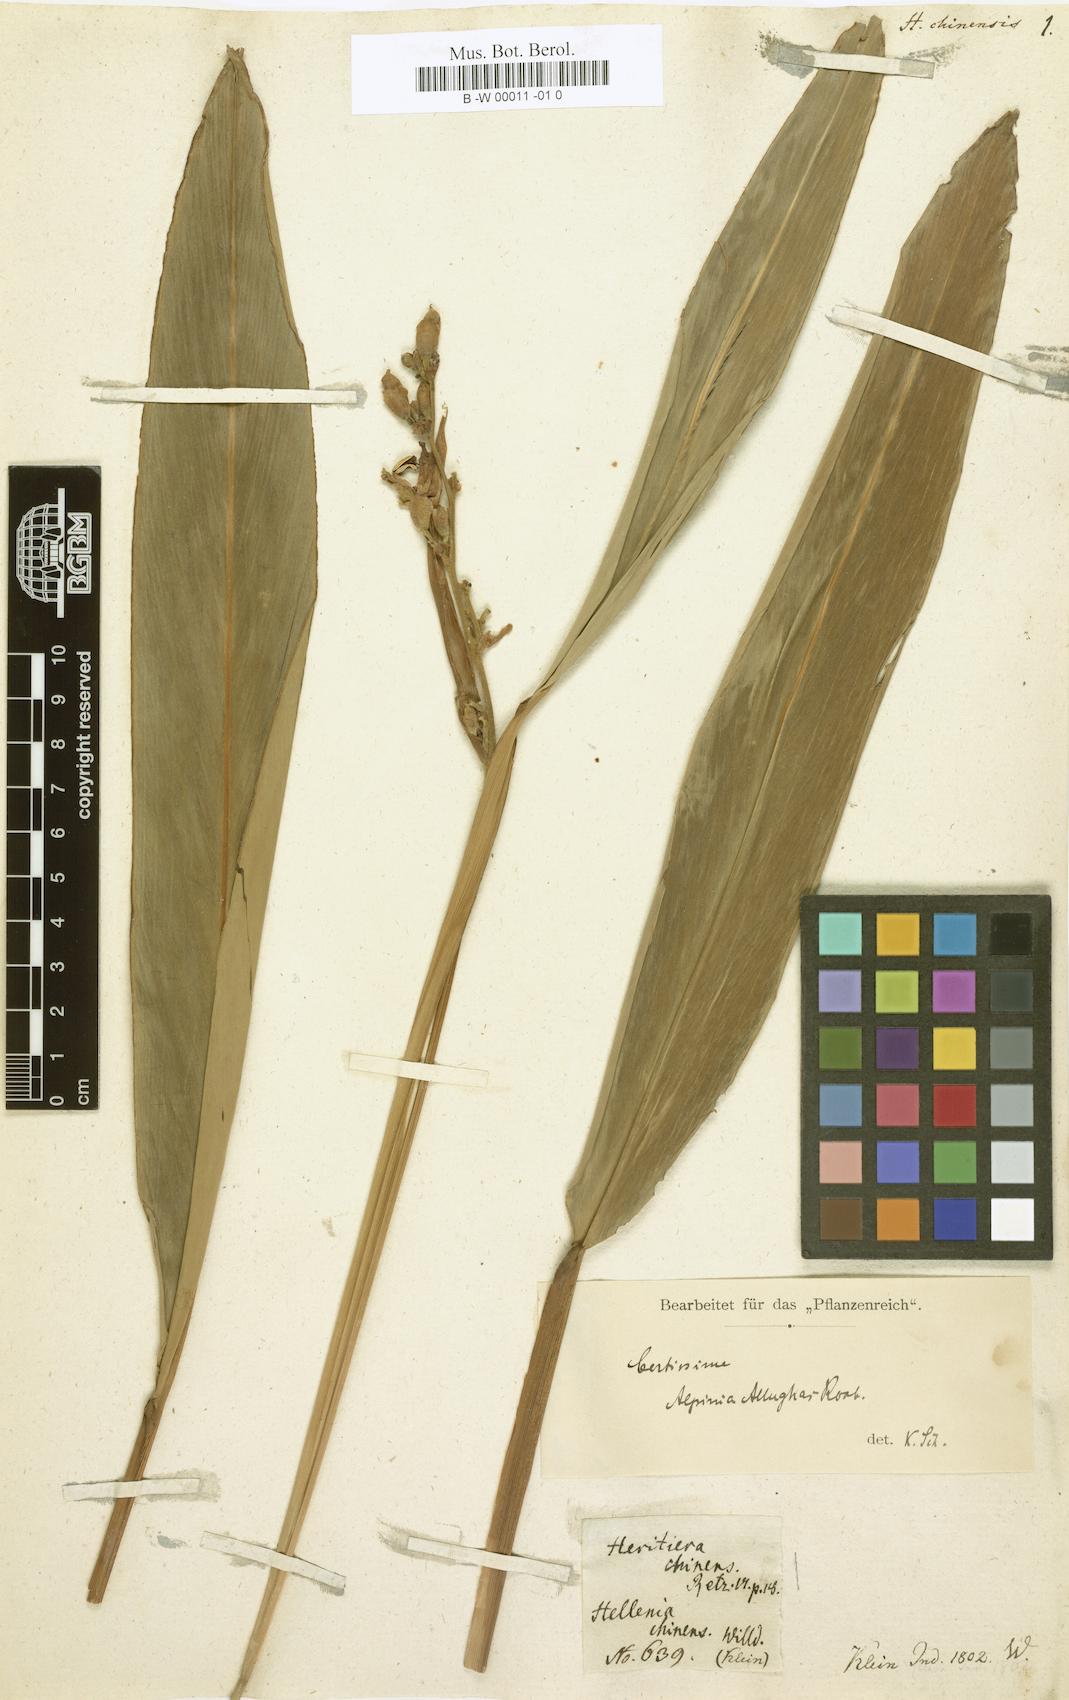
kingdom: Plantae
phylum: Tracheophyta
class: Liliopsida
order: Zingiberales
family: Zingiberaceae
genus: Alpinia
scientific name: Alpinia chinensis
